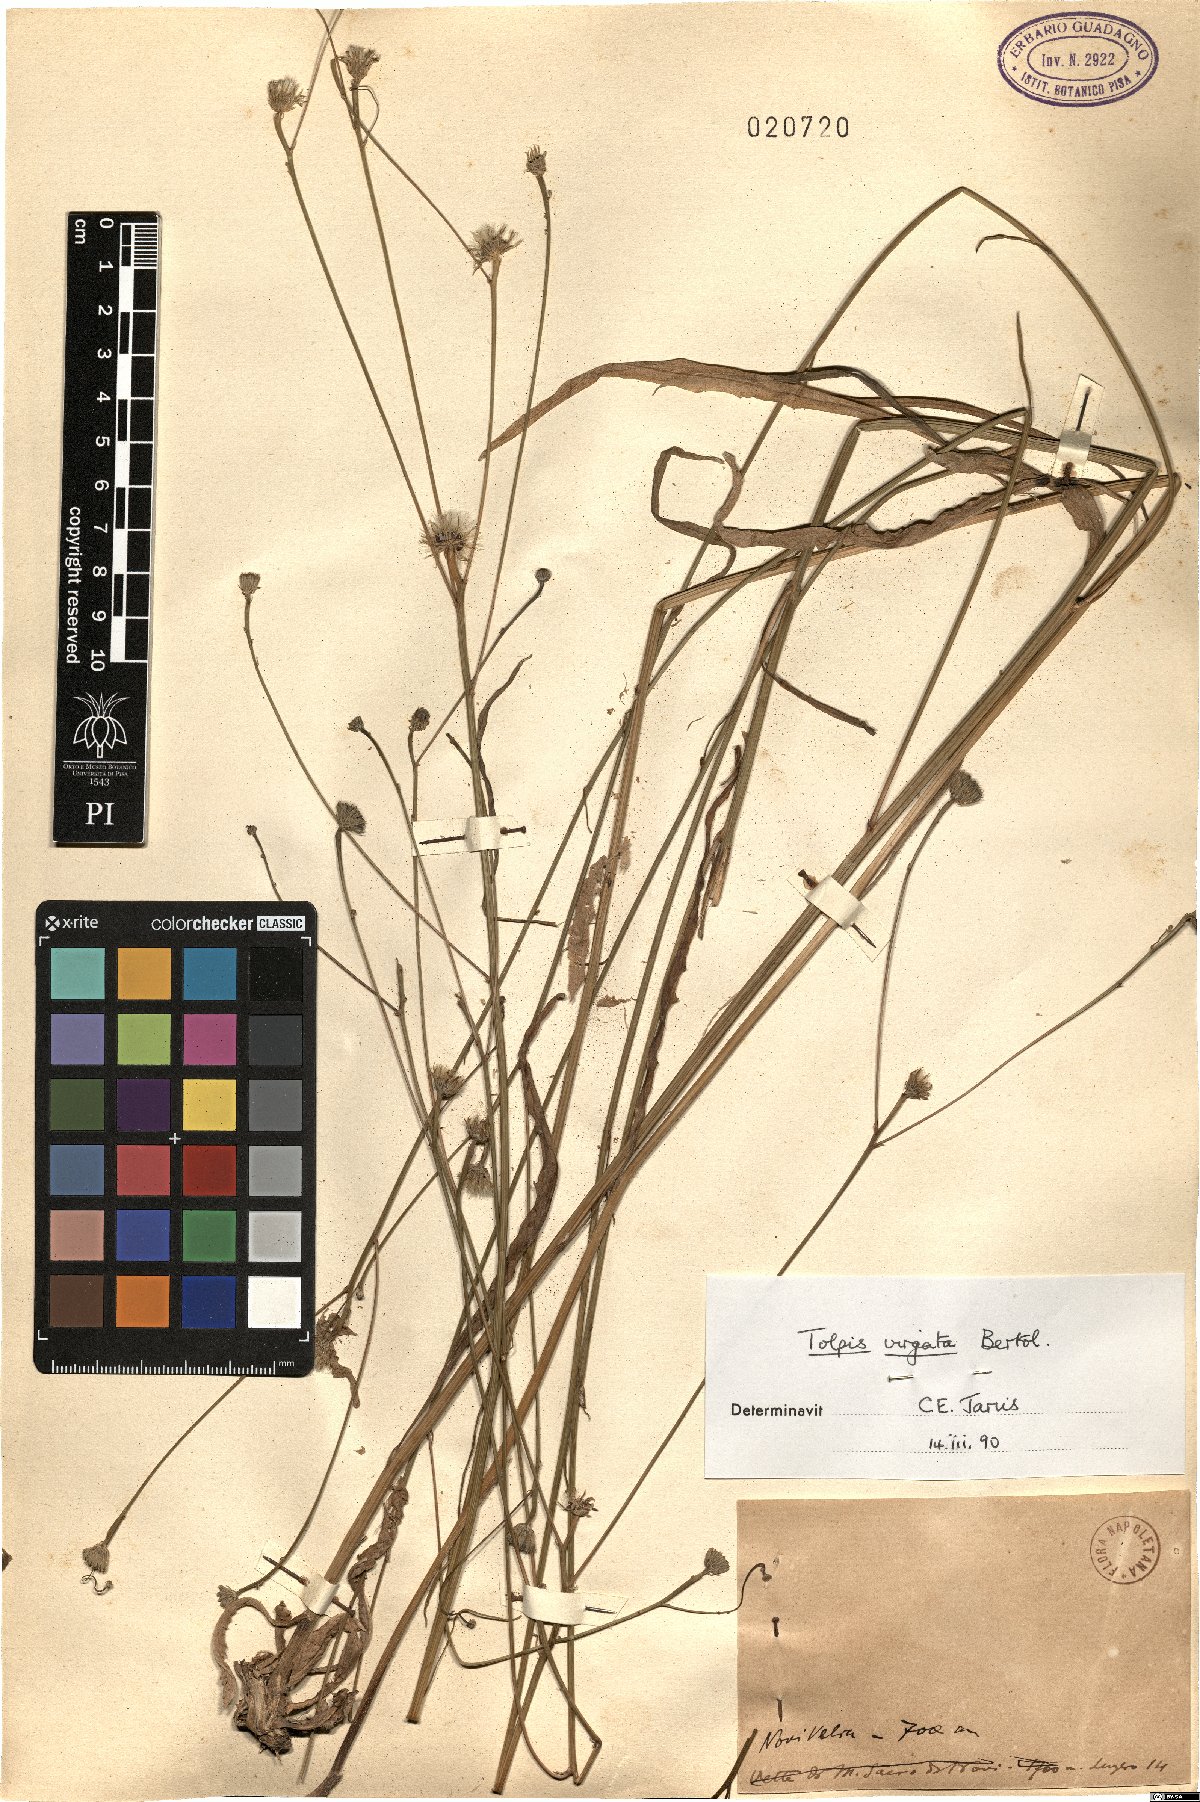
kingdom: Plantae
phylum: Tracheophyta
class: Magnoliopsida
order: Asterales
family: Asteraceae
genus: Tolpis
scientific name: Tolpis virgata
